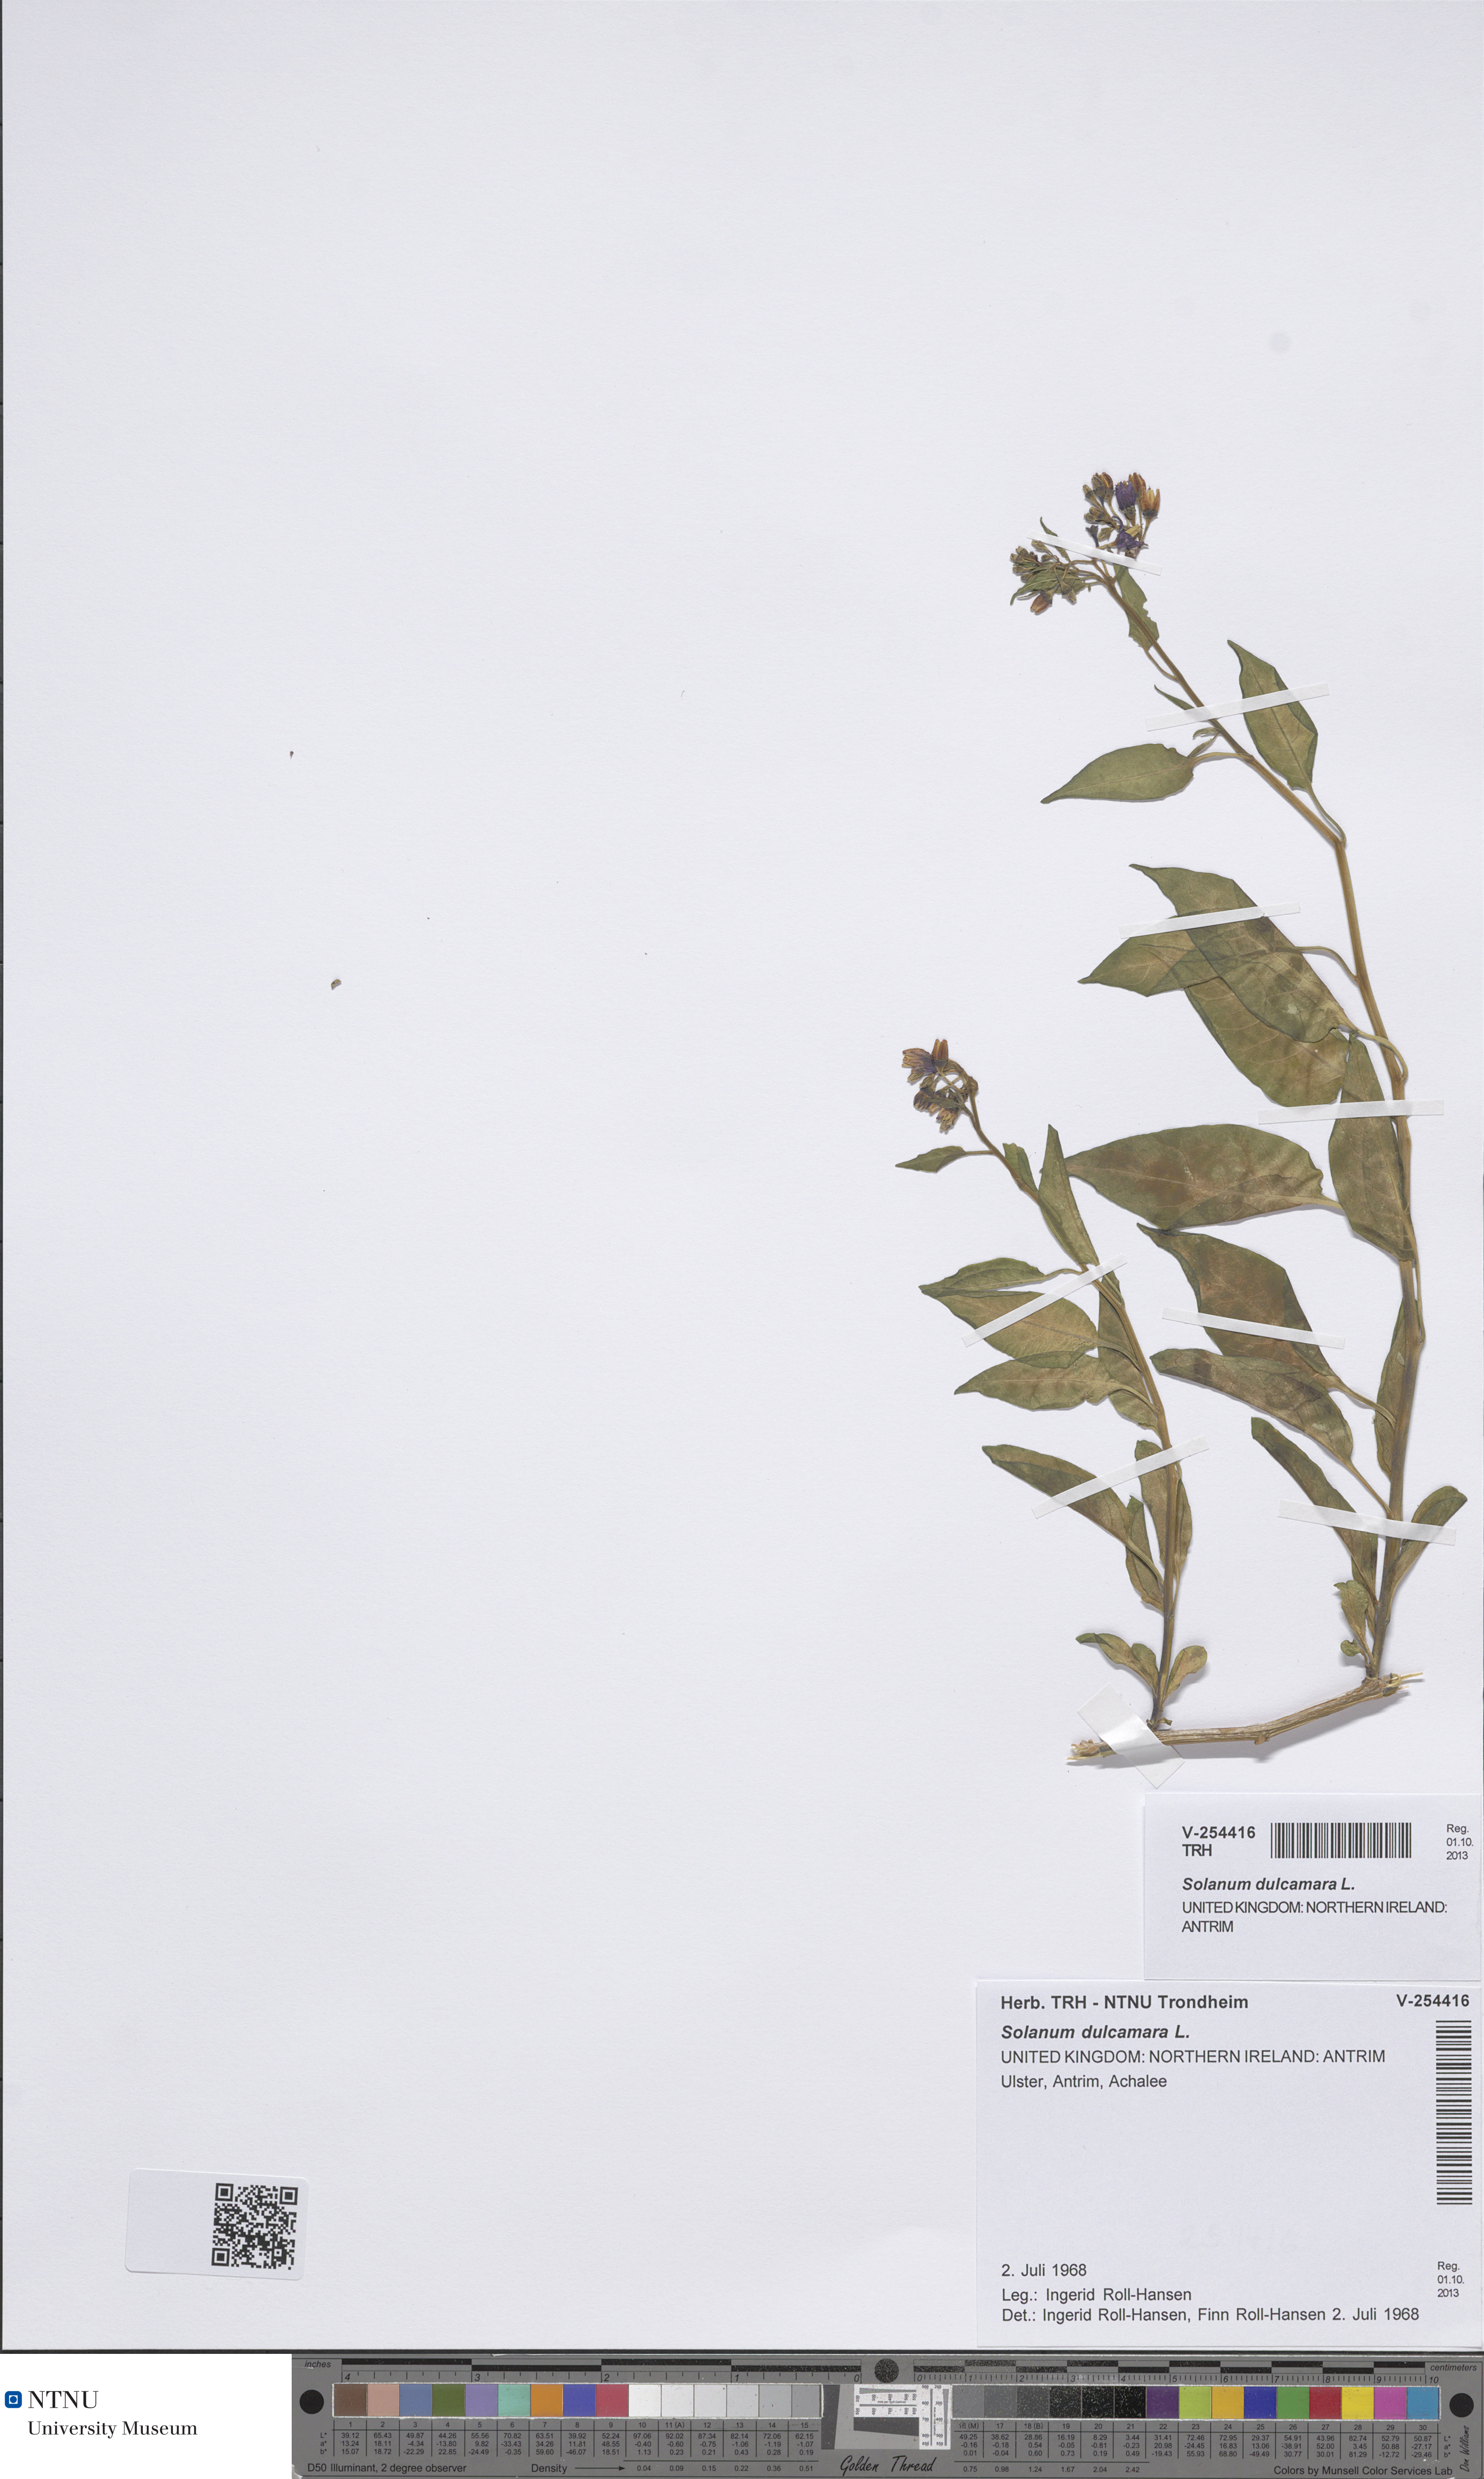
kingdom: Plantae
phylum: Tracheophyta
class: Magnoliopsida
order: Solanales
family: Solanaceae
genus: Solanum
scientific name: Solanum dulcamara
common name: Climbing nightshade
